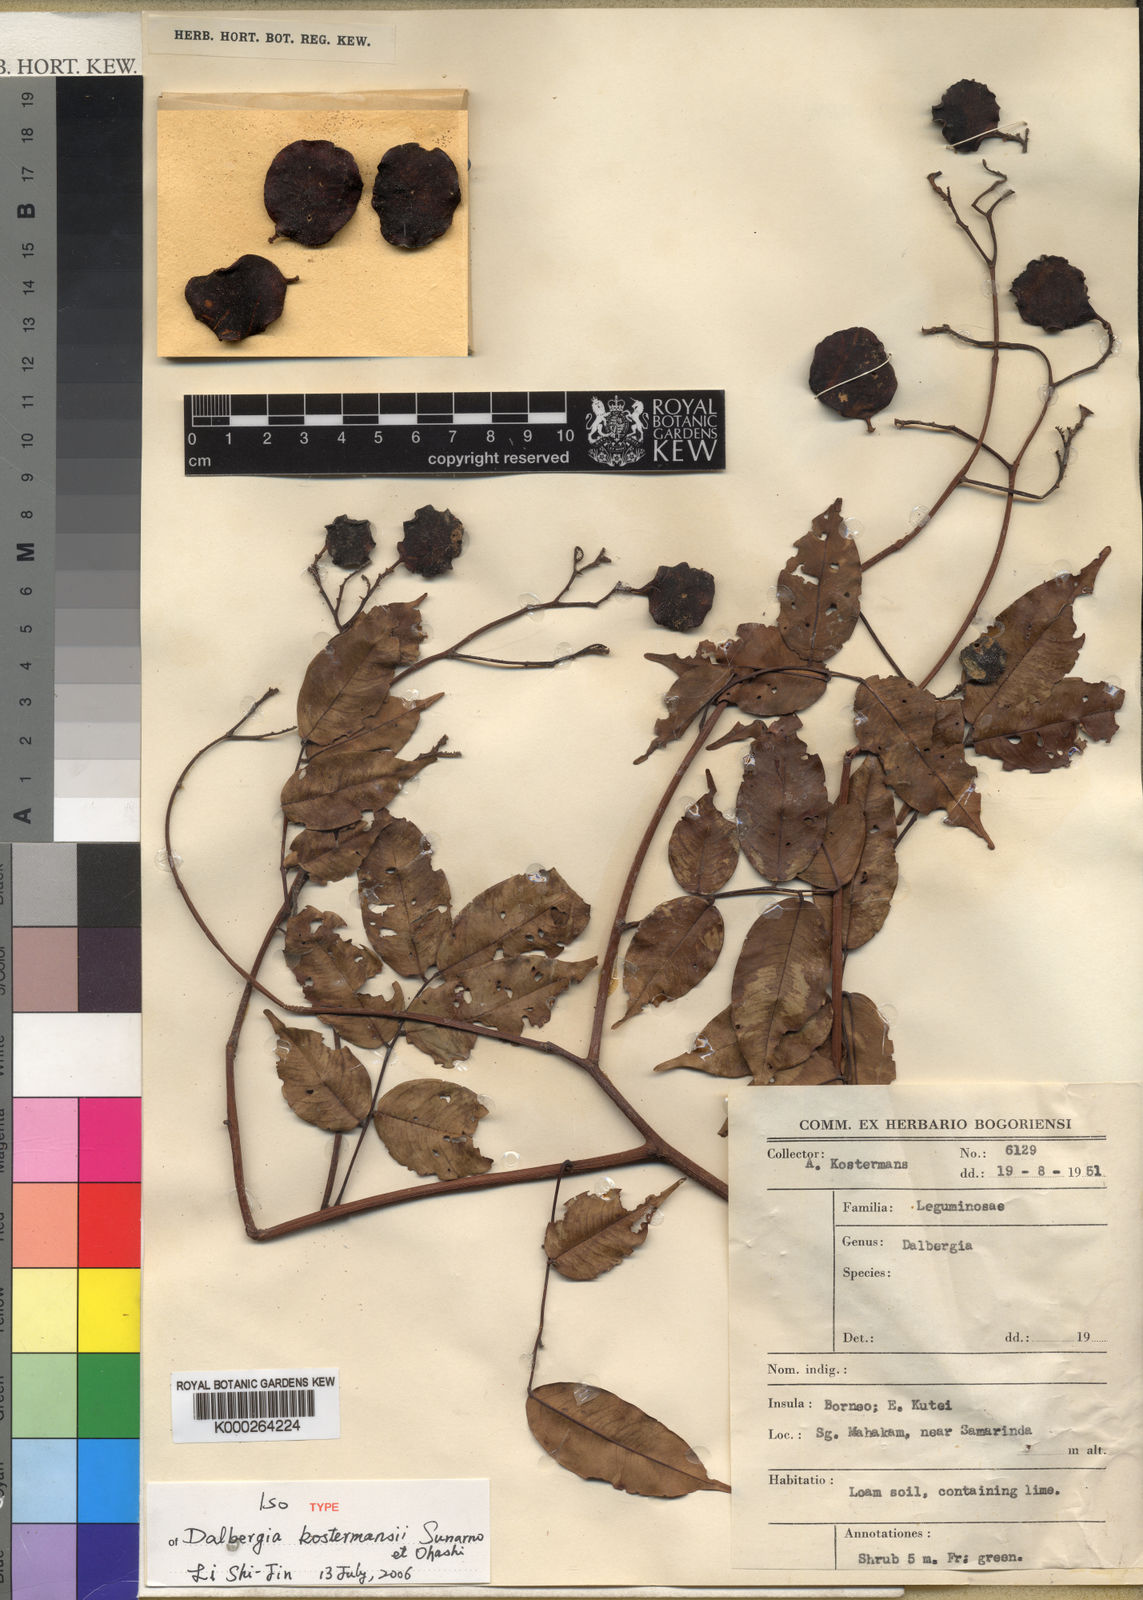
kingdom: Plantae
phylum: Tracheophyta
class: Magnoliopsida
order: Fabales
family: Fabaceae
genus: Dalbergia
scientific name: Dalbergia bintuluensis
